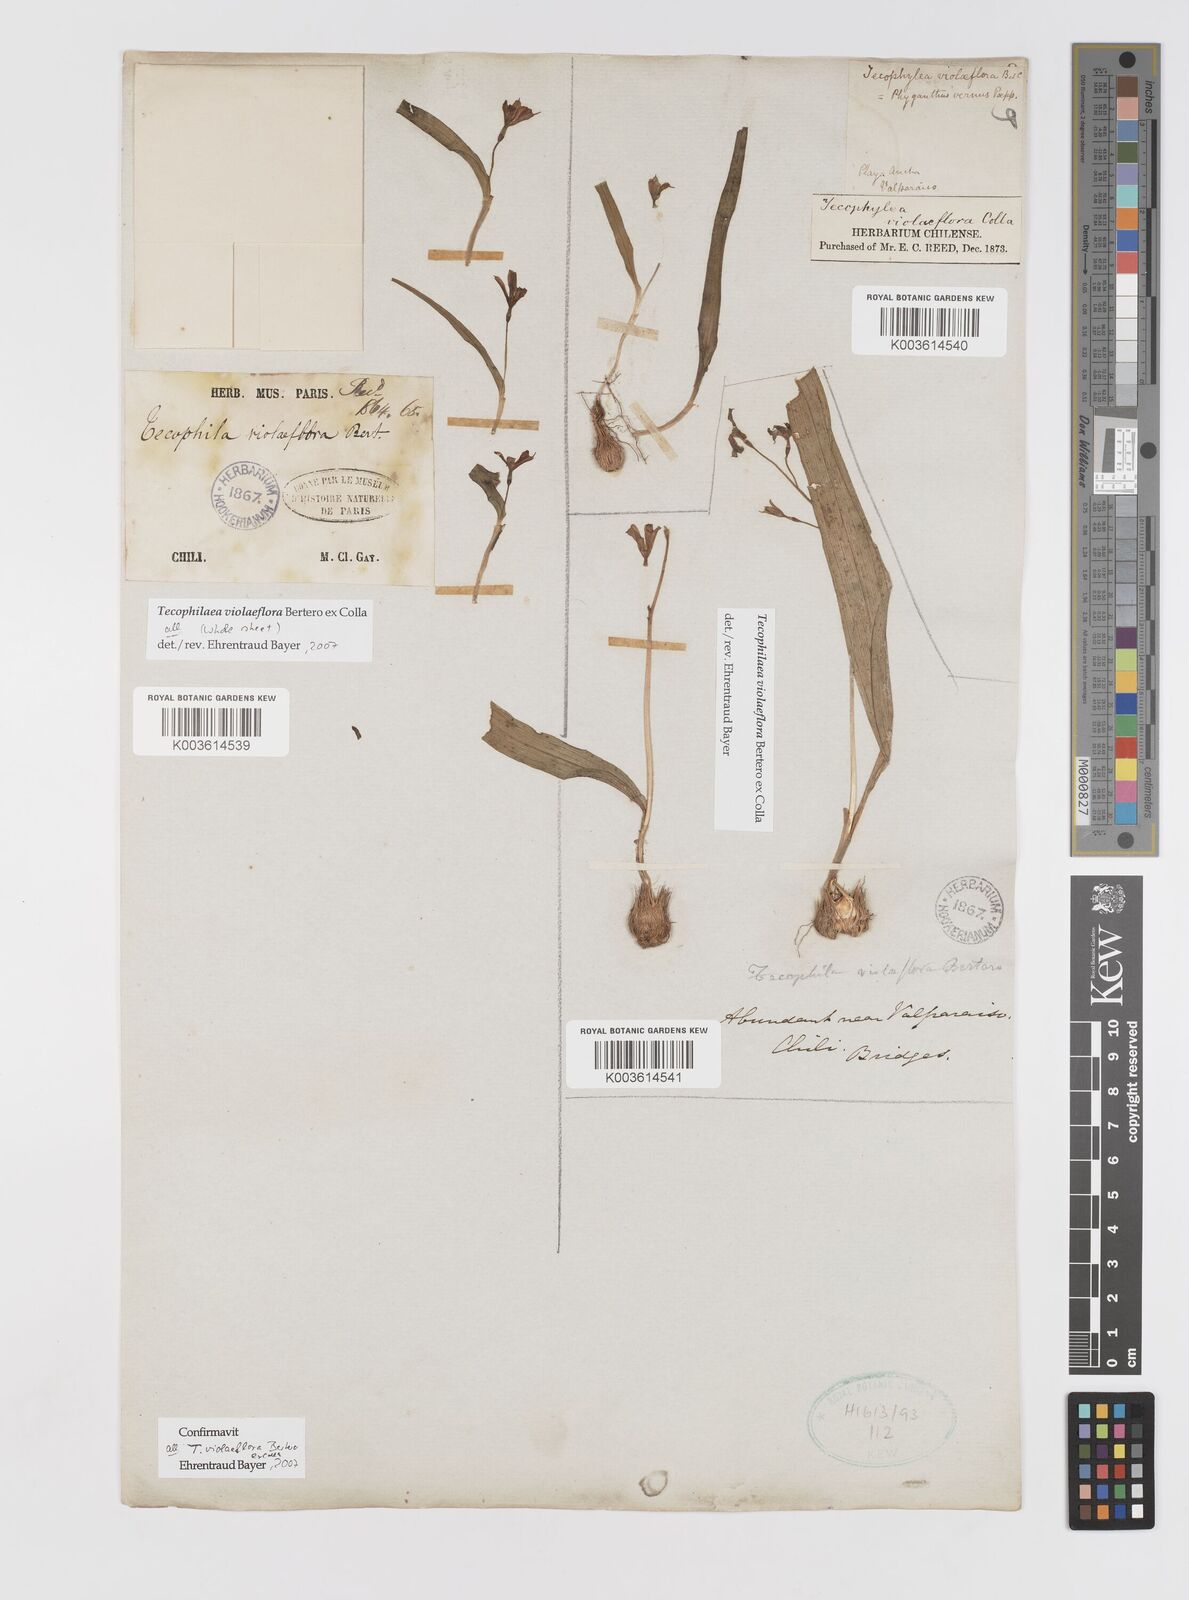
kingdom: Plantae
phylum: Tracheophyta
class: Liliopsida
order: Asparagales
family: Tecophilaeaceae
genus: Tecophilaea
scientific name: Tecophilaea violiflora
